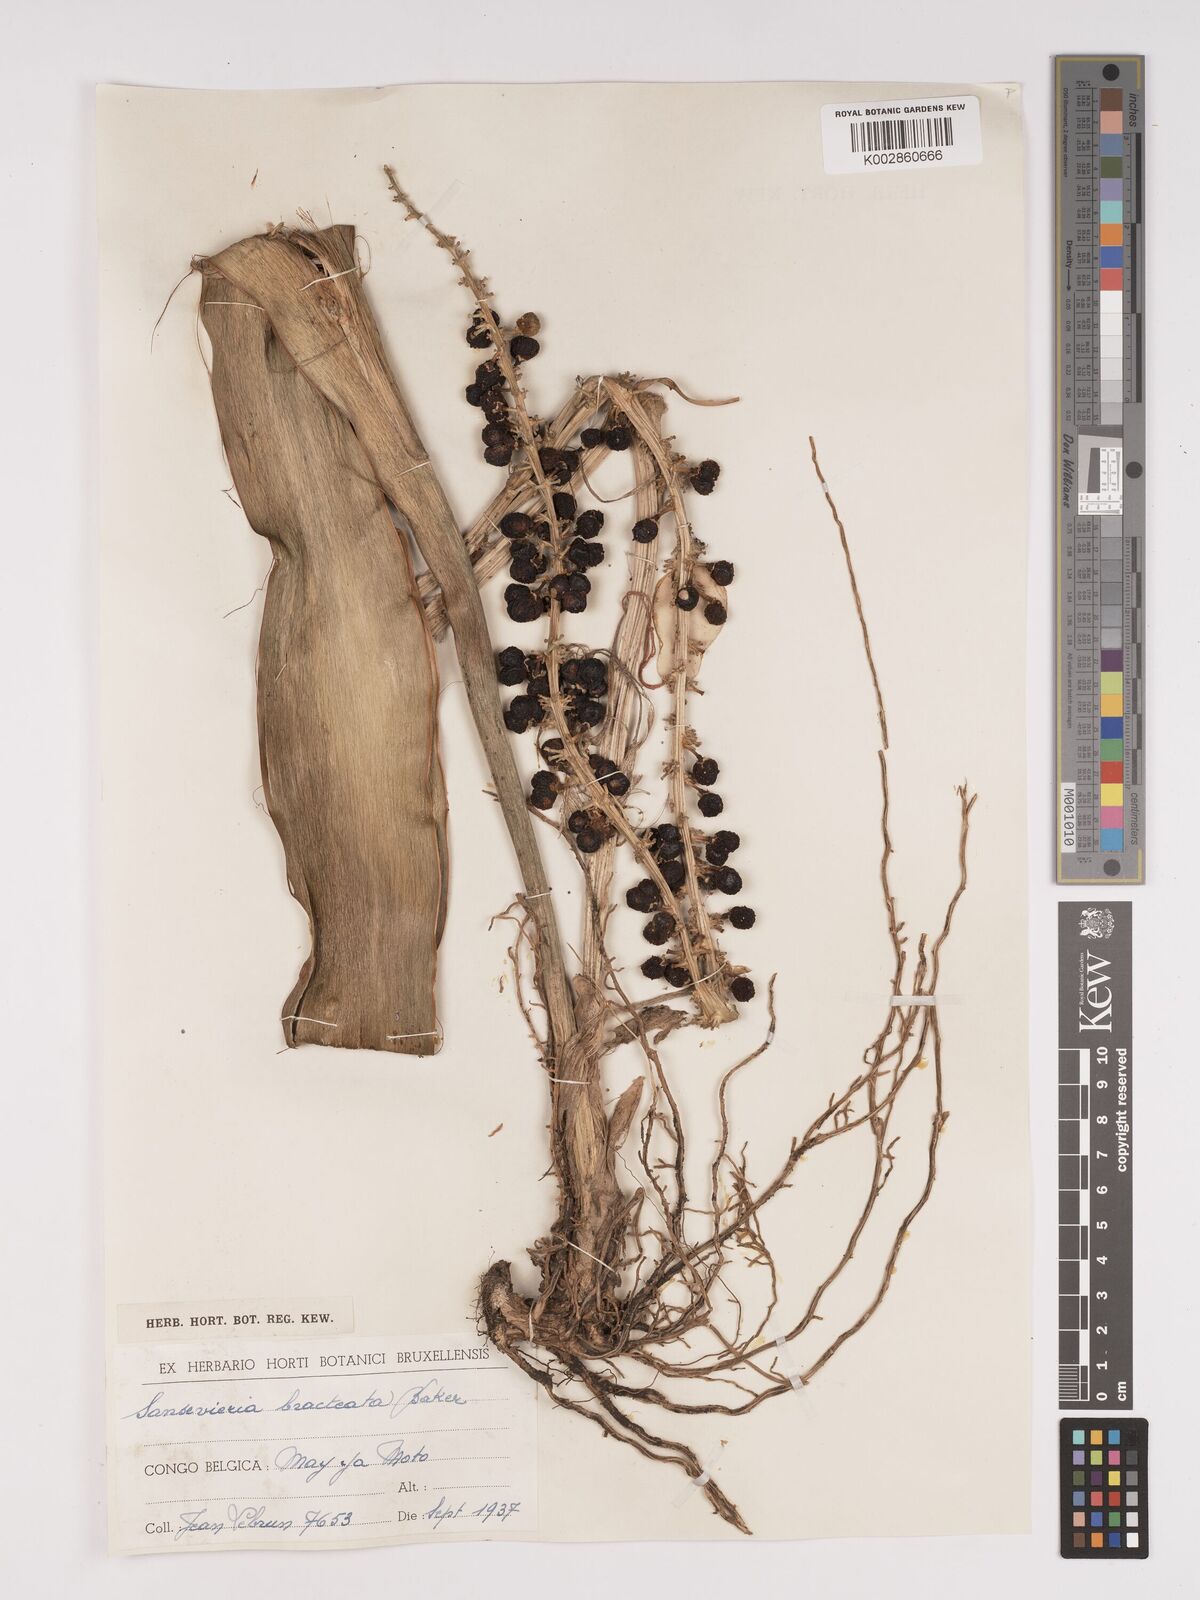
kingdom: Plantae
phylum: Tracheophyta
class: Liliopsida
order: Asparagales
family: Asparagaceae
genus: Dracaena
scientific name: Dracaena aubrytiana
